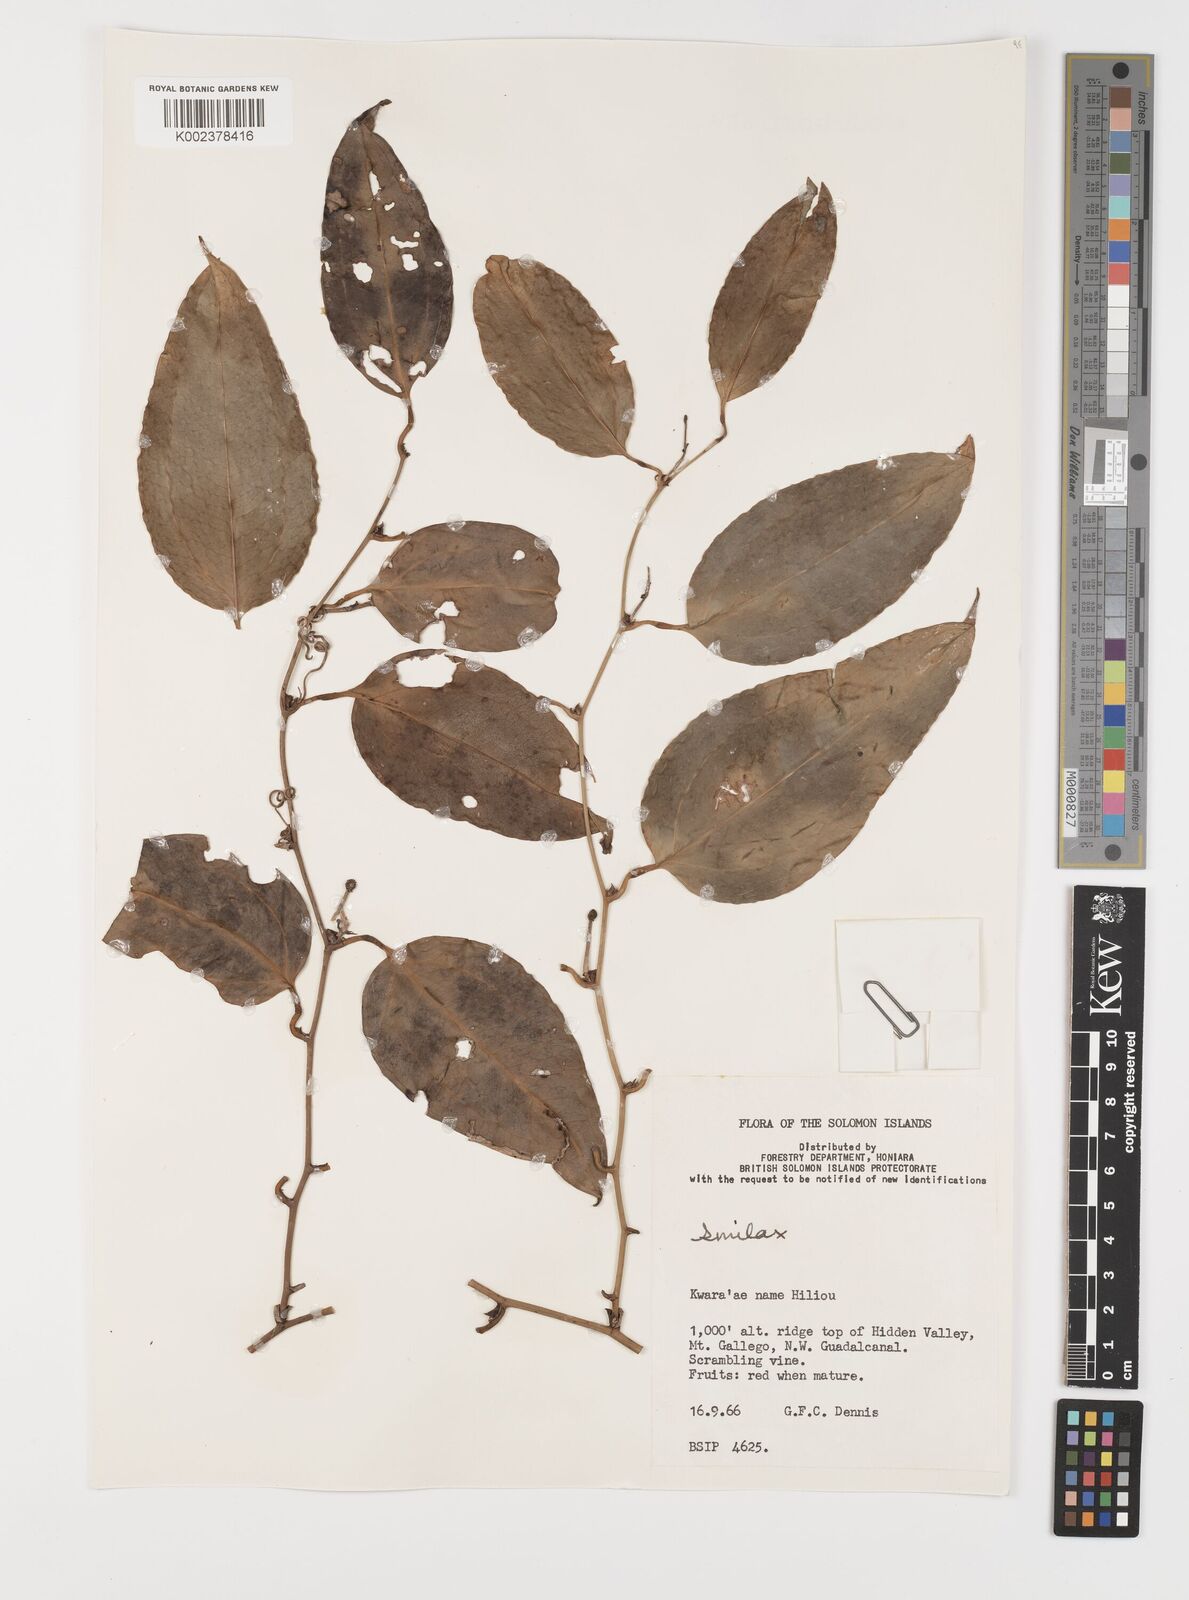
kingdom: Plantae
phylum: Tracheophyta
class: Liliopsida
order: Liliales
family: Smilacaceae
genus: Smilax
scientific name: Smilax
